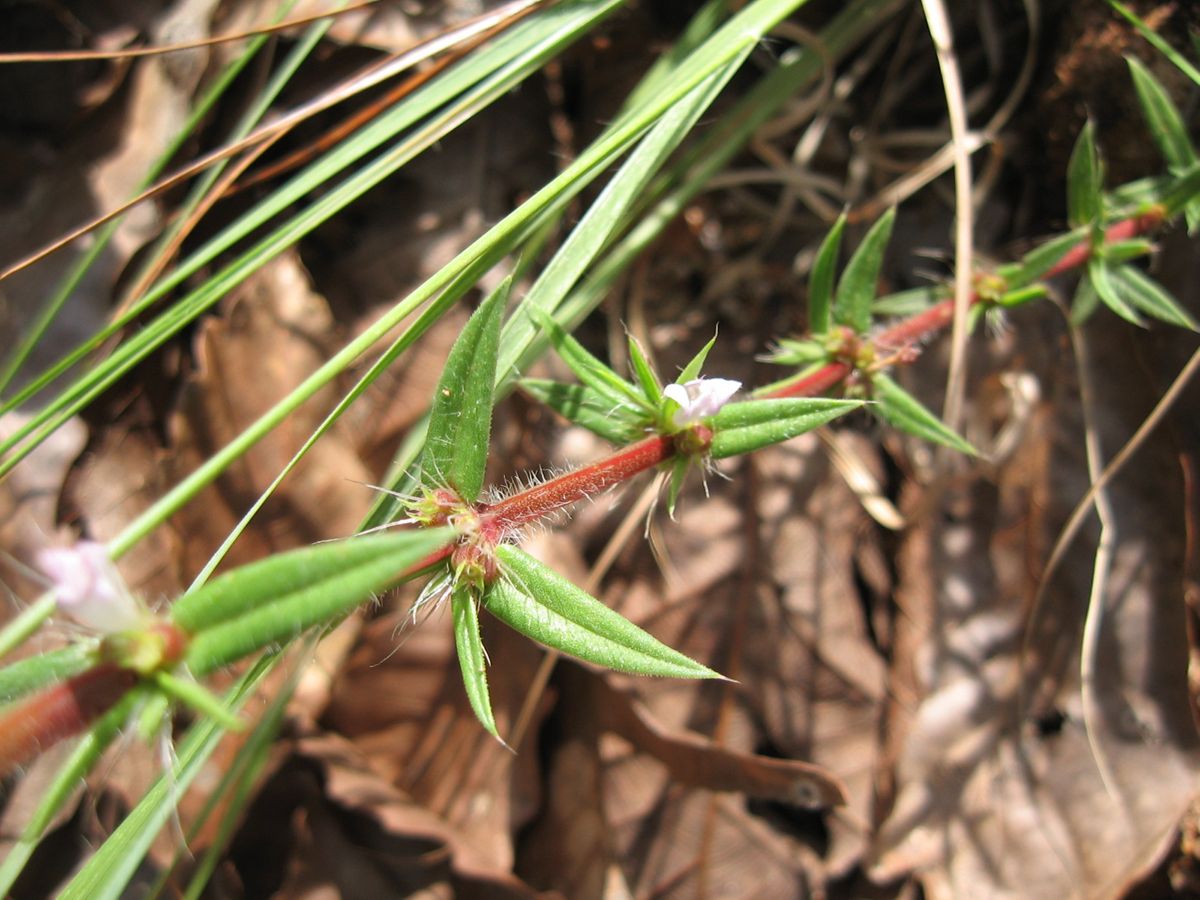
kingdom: Plantae
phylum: Tracheophyta
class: Magnoliopsida
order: Gentianales
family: Rubiaceae
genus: Hexasepalum
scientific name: Hexasepalum teres
